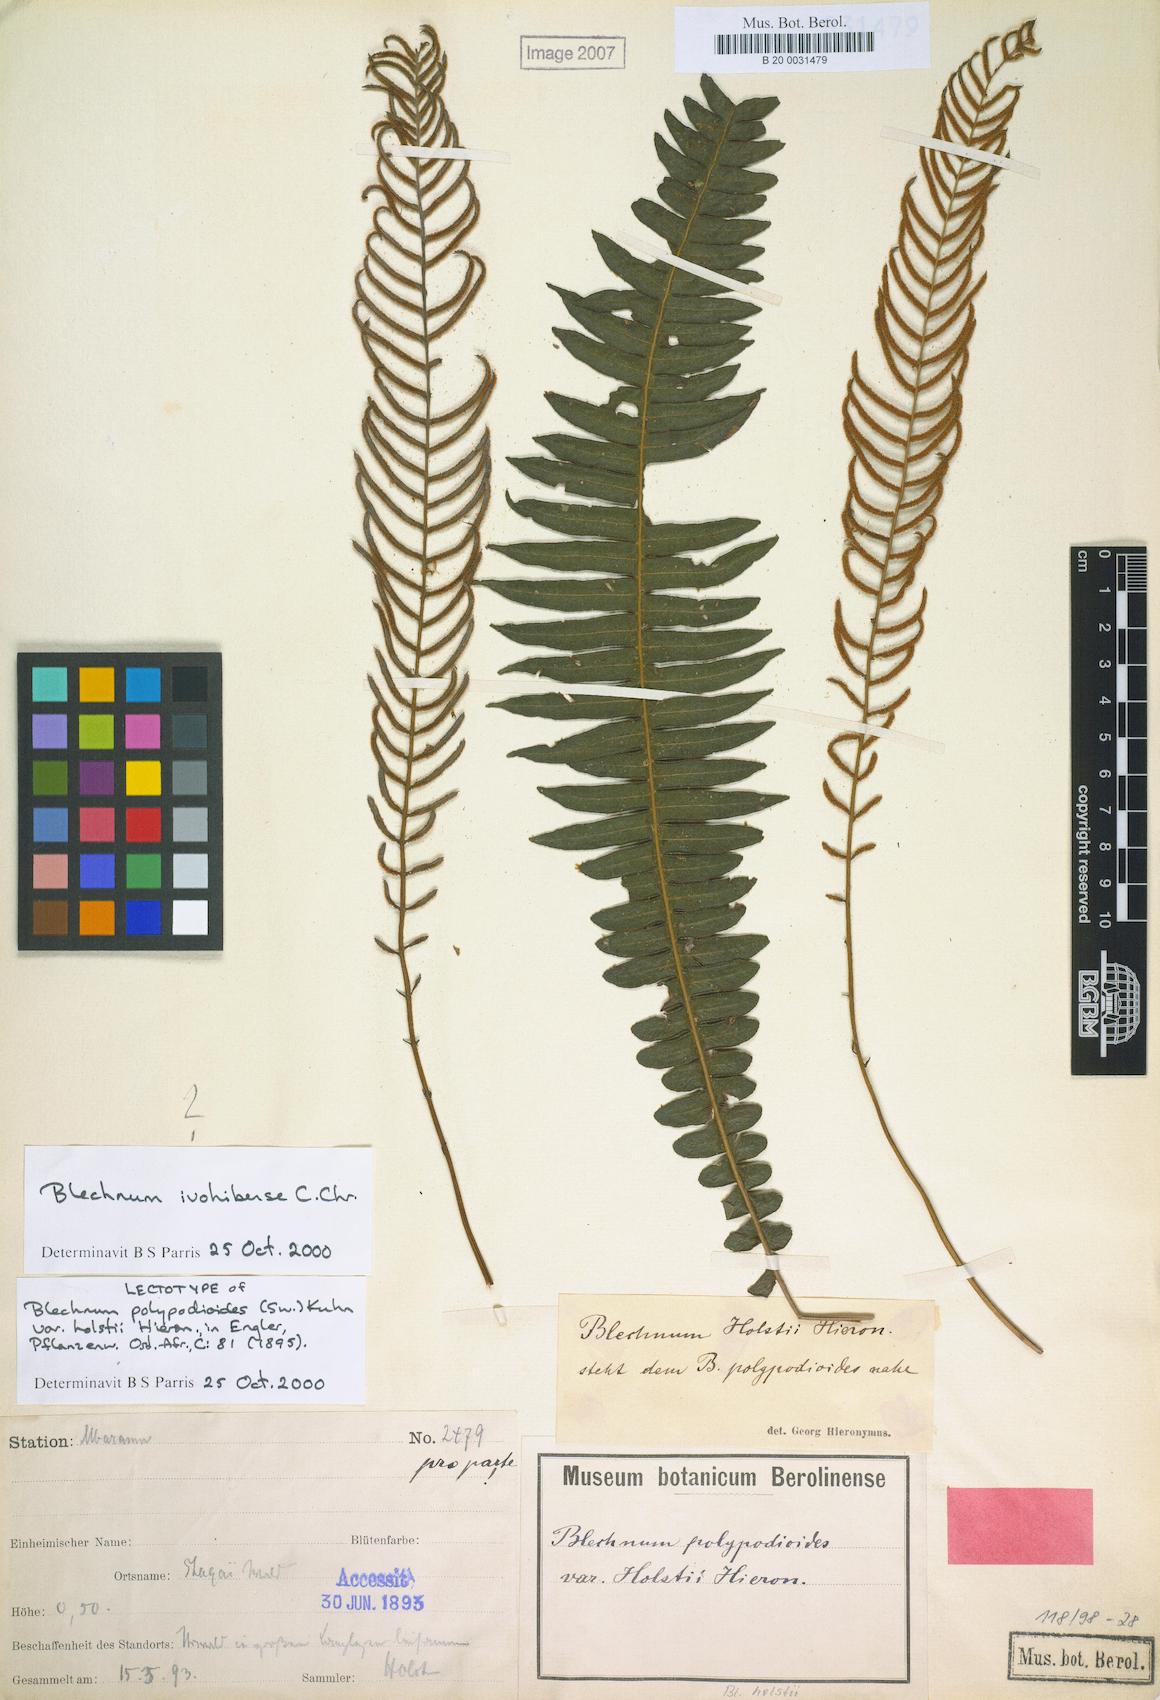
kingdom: Plantae
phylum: Tracheophyta
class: Polypodiopsida
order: Polypodiales
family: Blechnaceae
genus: Cranfillia
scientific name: Cranfillia bakeri
